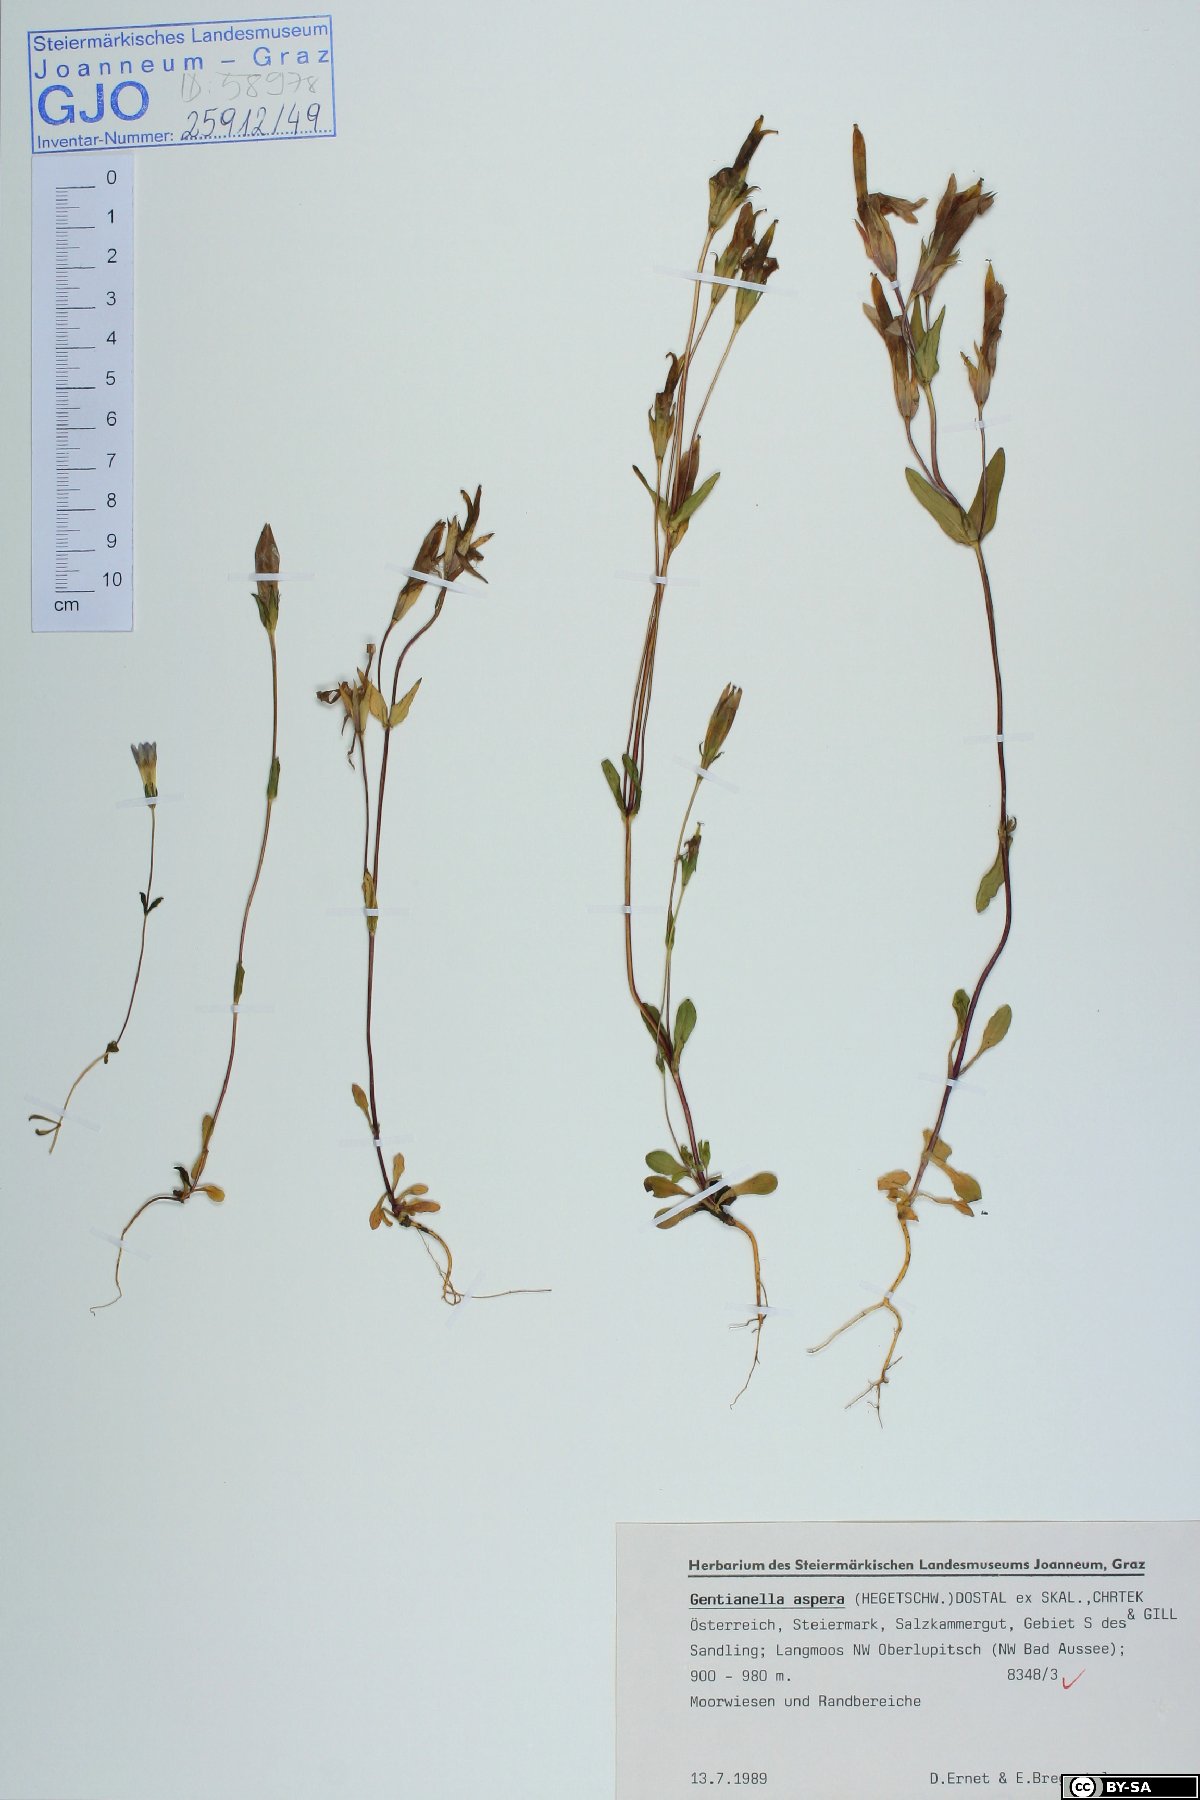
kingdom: Plantae
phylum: Tracheophyta
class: Magnoliopsida
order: Gentianales
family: Gentianaceae
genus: Gentianella
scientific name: Gentianella obtusifolia
